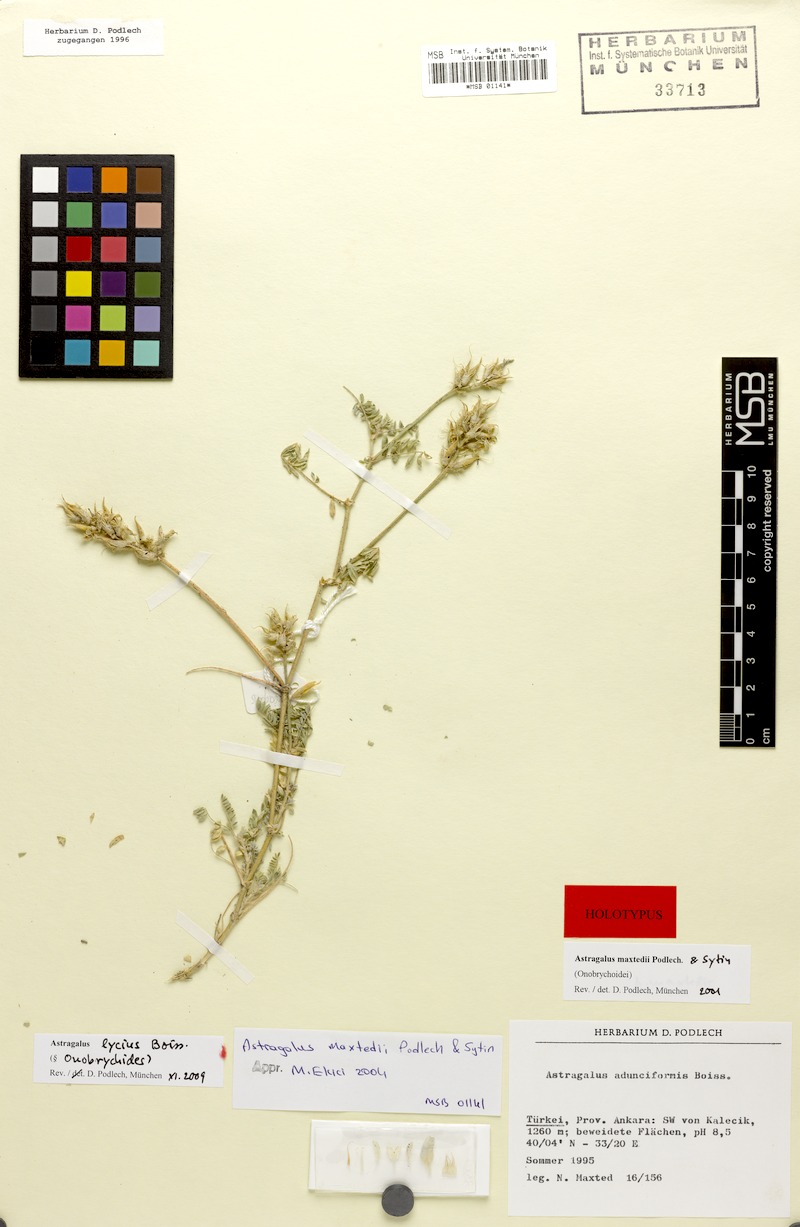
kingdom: Plantae
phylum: Tracheophyta
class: Magnoliopsida
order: Fabales
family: Fabaceae
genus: Astragalus
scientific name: Astragalus lycius
